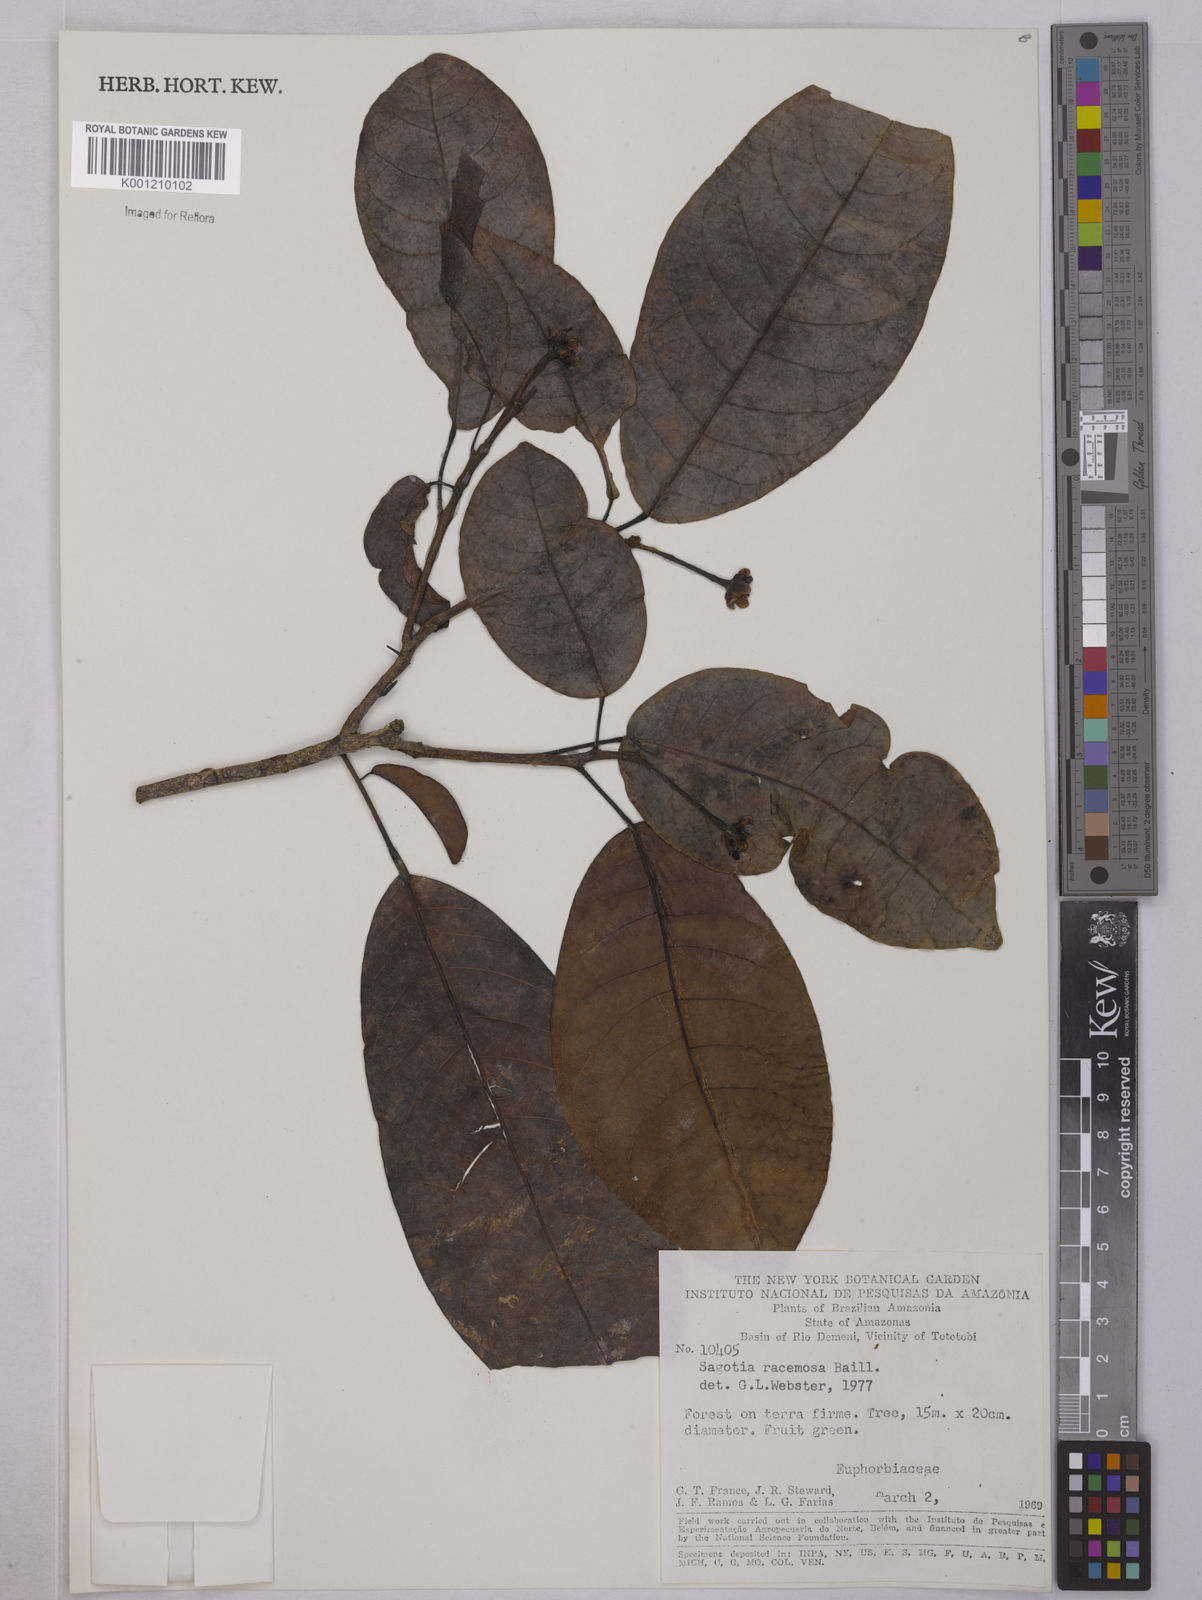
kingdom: Plantae
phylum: Tracheophyta
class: Magnoliopsida
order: Malpighiales
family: Euphorbiaceae
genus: Sagotia
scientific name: Sagotia racemosa
